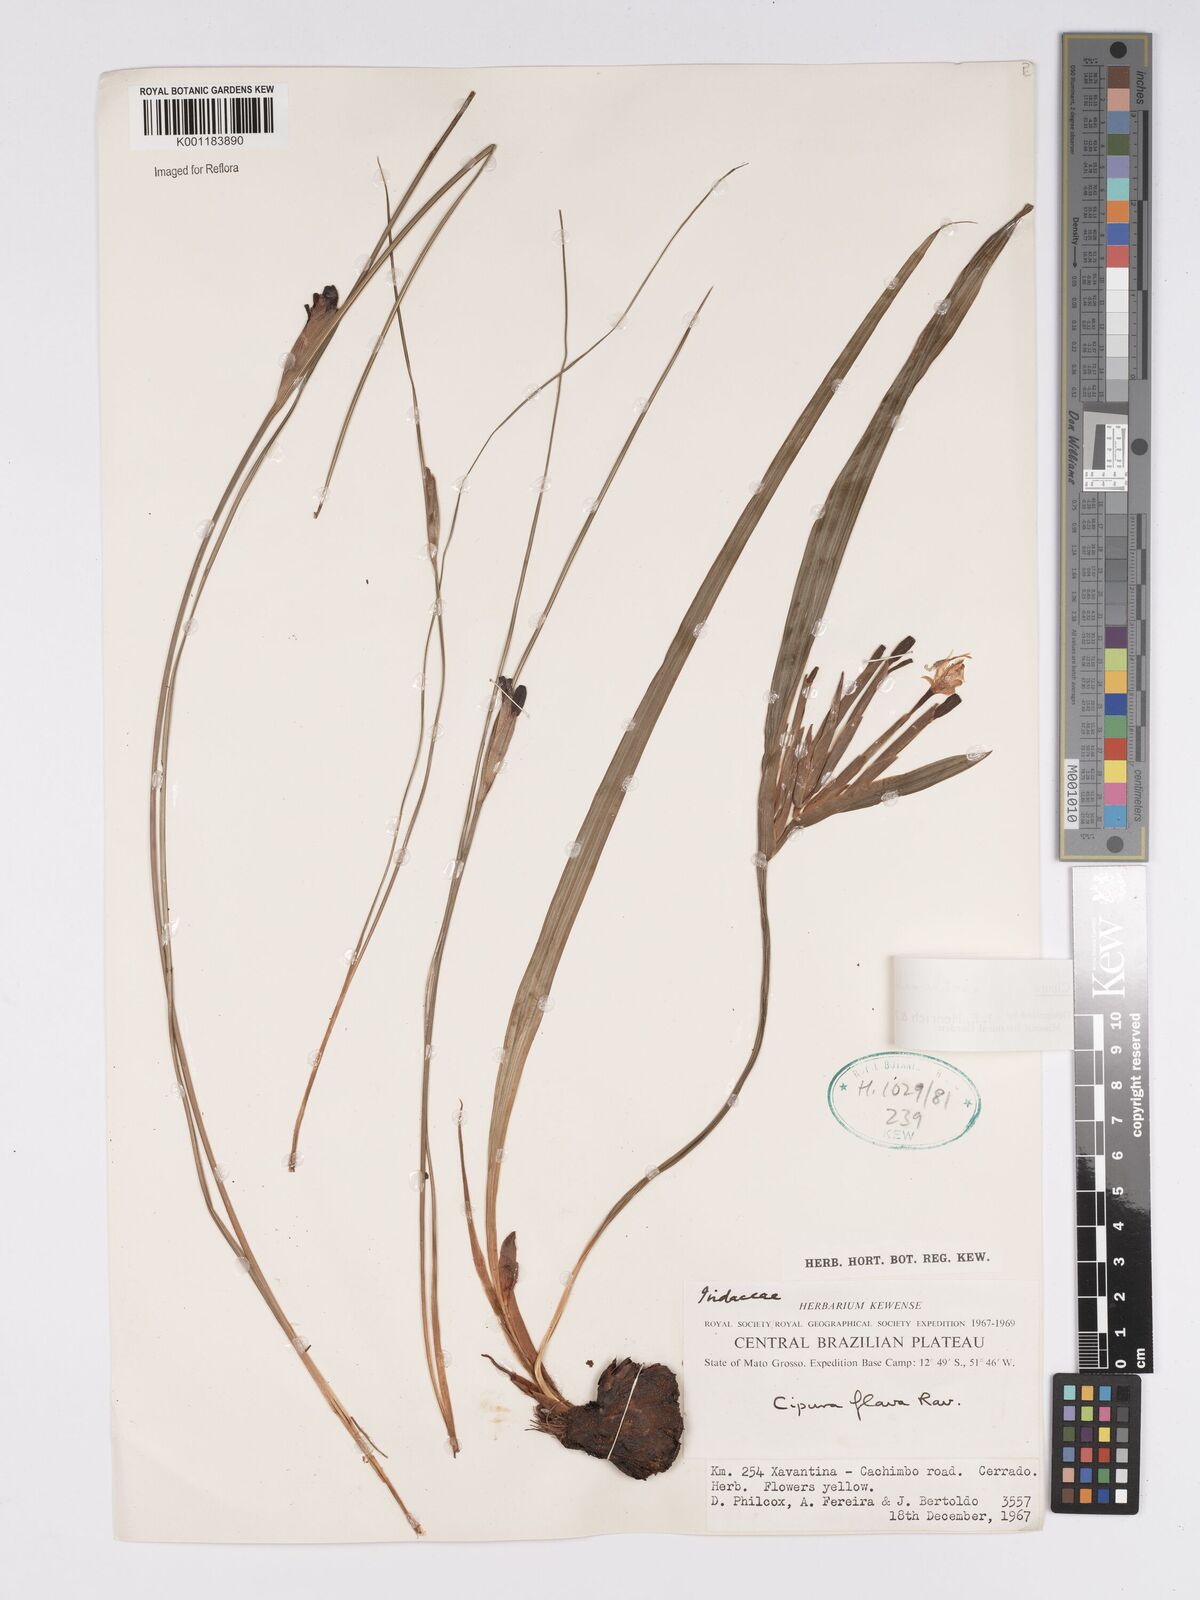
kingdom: Plantae
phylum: Tracheophyta
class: Liliopsida
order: Asparagales
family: Iridaceae
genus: Cipura
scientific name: Cipura xanthomelas
